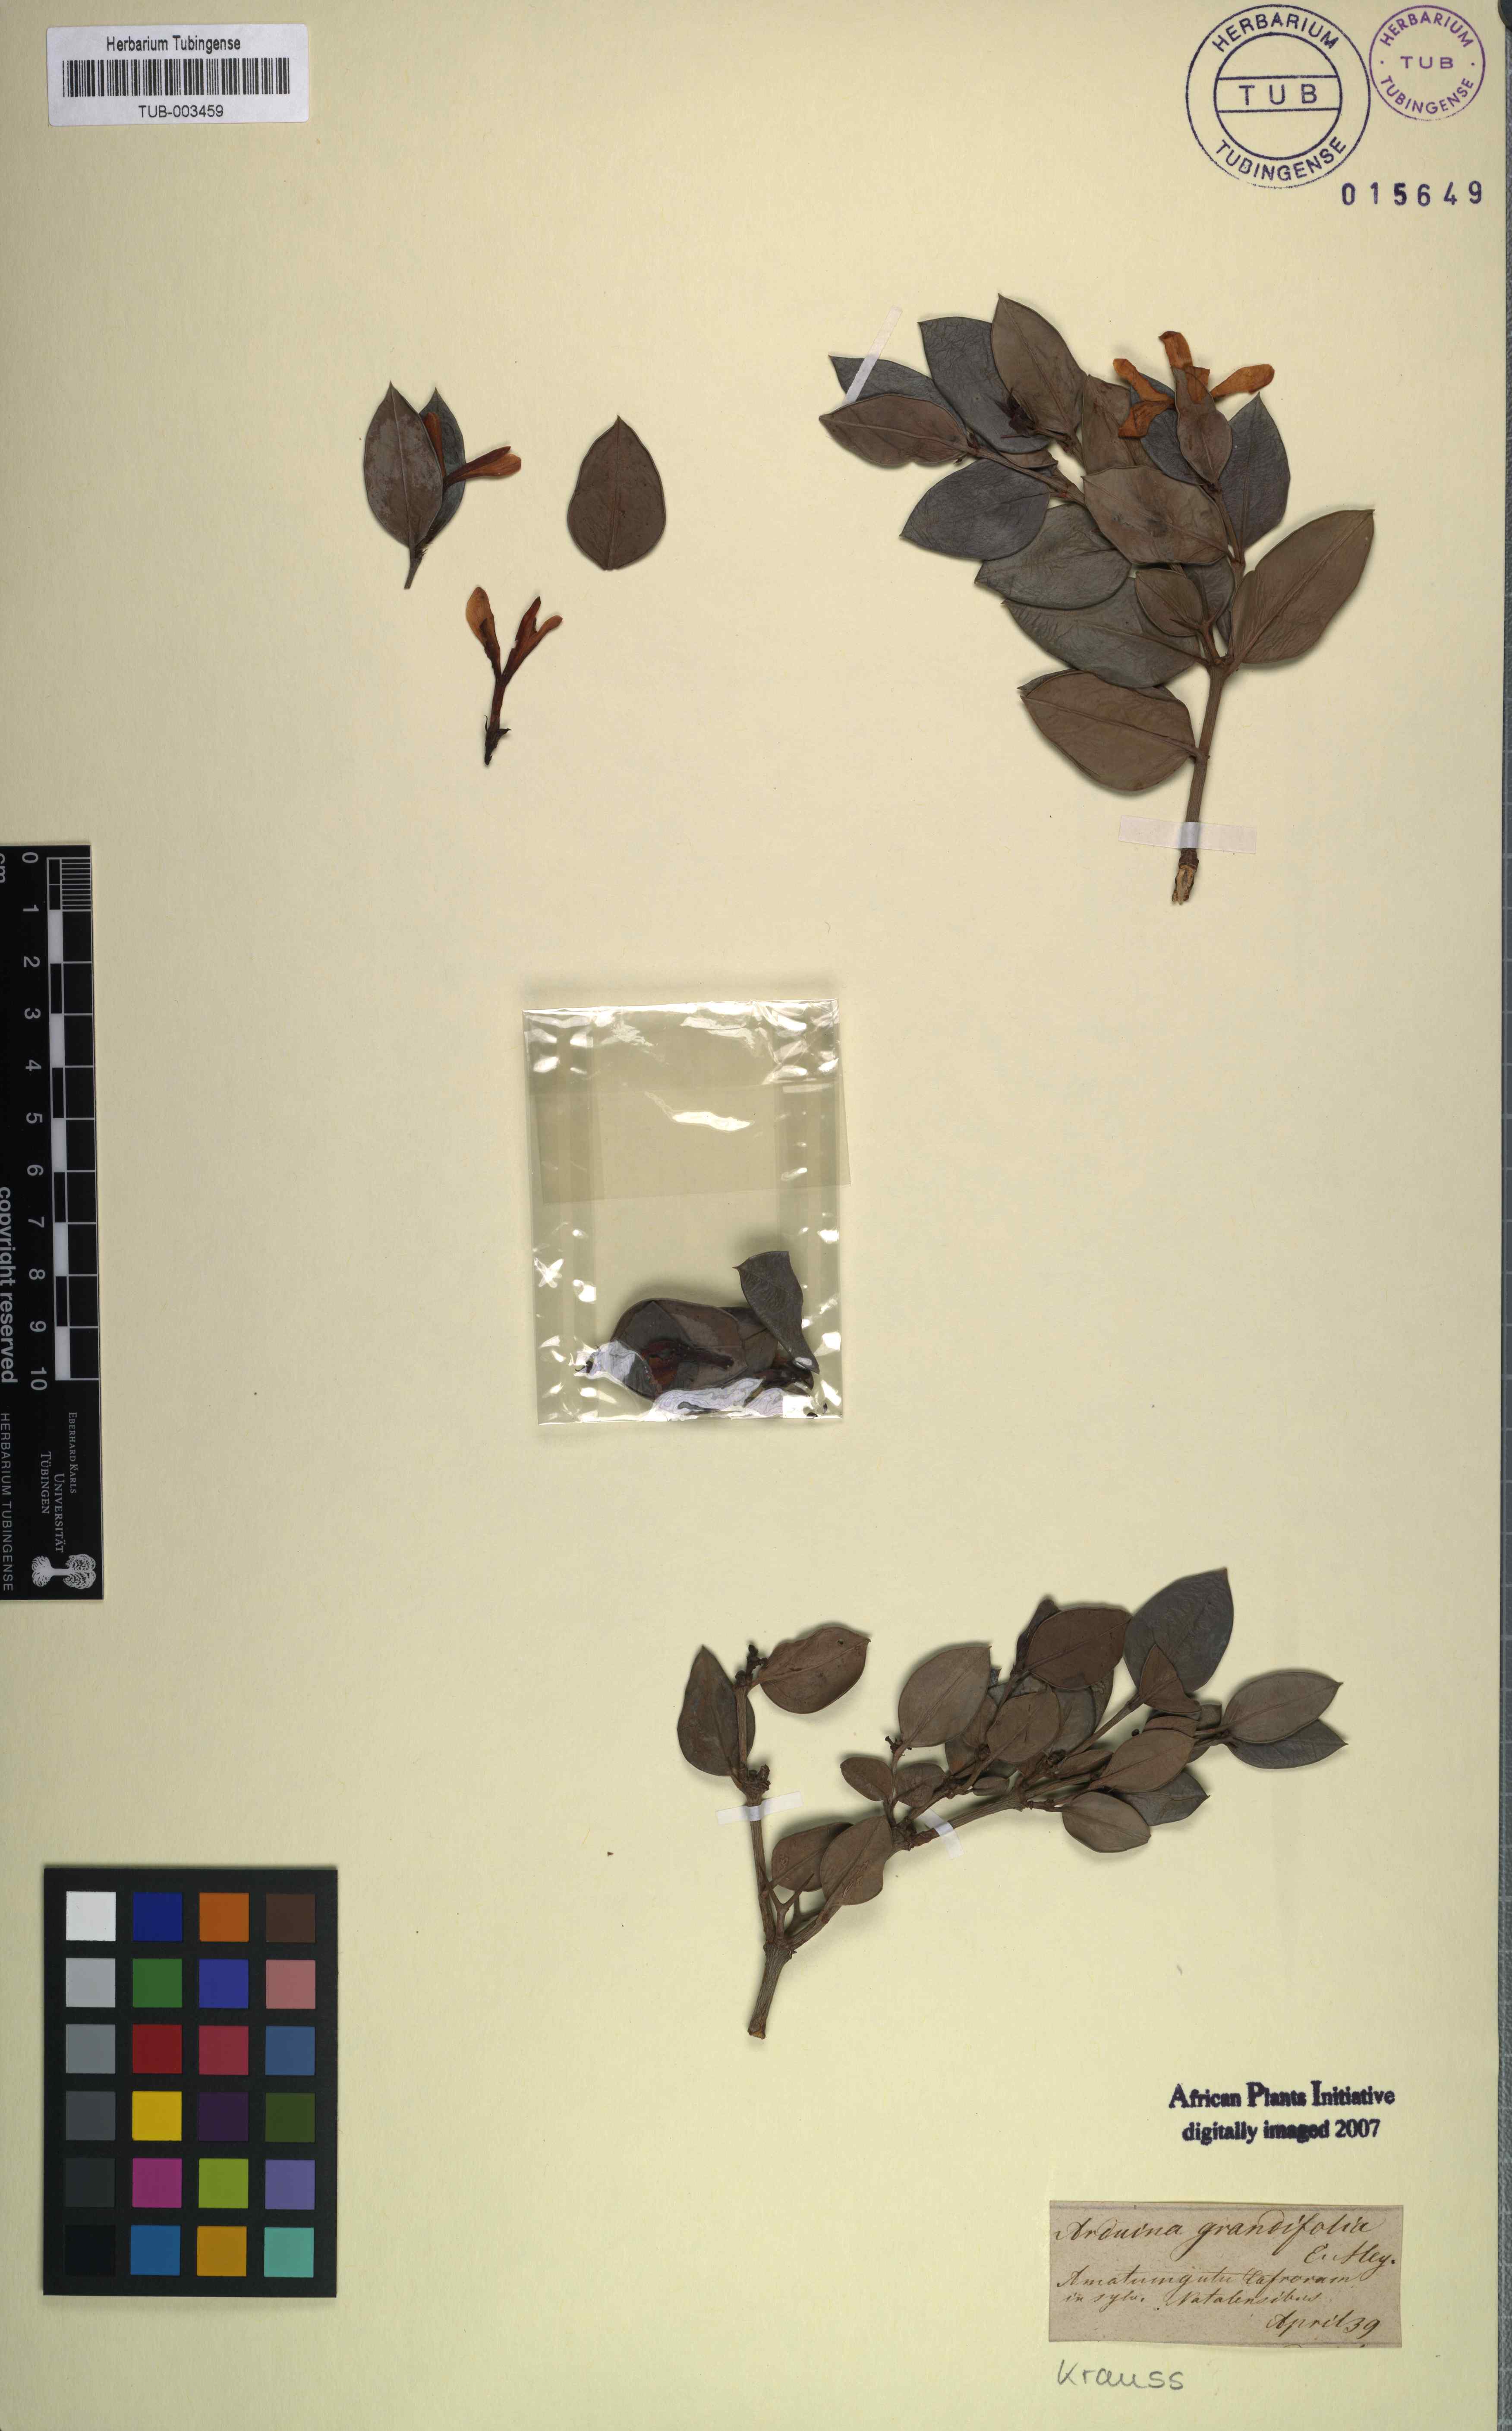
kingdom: Plantae
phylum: Tracheophyta
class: Magnoliopsida
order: Gentianales
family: Apocynaceae
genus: Carissa
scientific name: Carissa macrocarpa
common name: Natal plum
